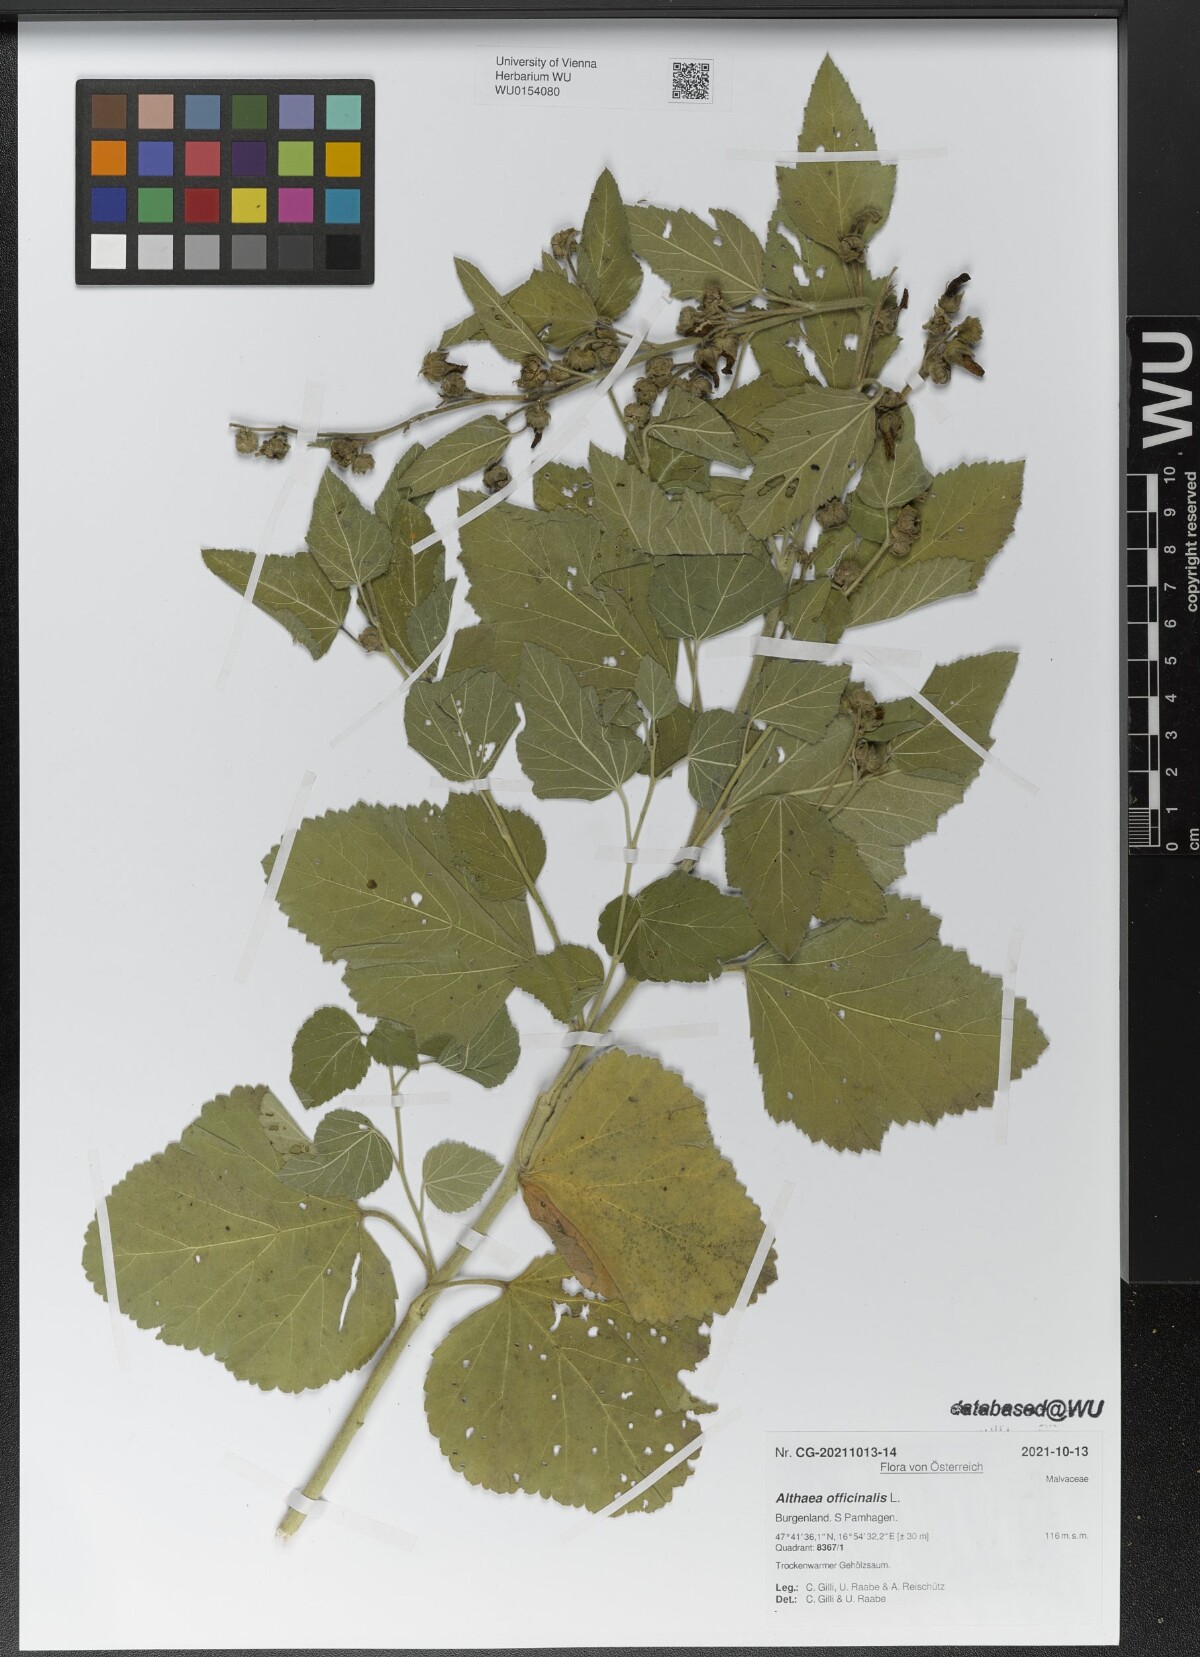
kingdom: Plantae
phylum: Tracheophyta
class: Magnoliopsida
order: Malvales
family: Malvaceae
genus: Althaea
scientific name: Althaea officinalis
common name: Marsh-mallow
